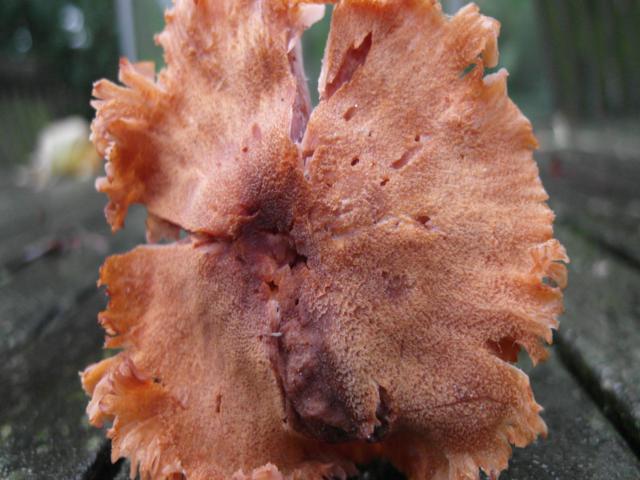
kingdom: Fungi
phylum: Basidiomycota
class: Agaricomycetes
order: Agaricales
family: Hydnangiaceae
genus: Laccaria
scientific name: Laccaria proxima
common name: stor ametysthat
